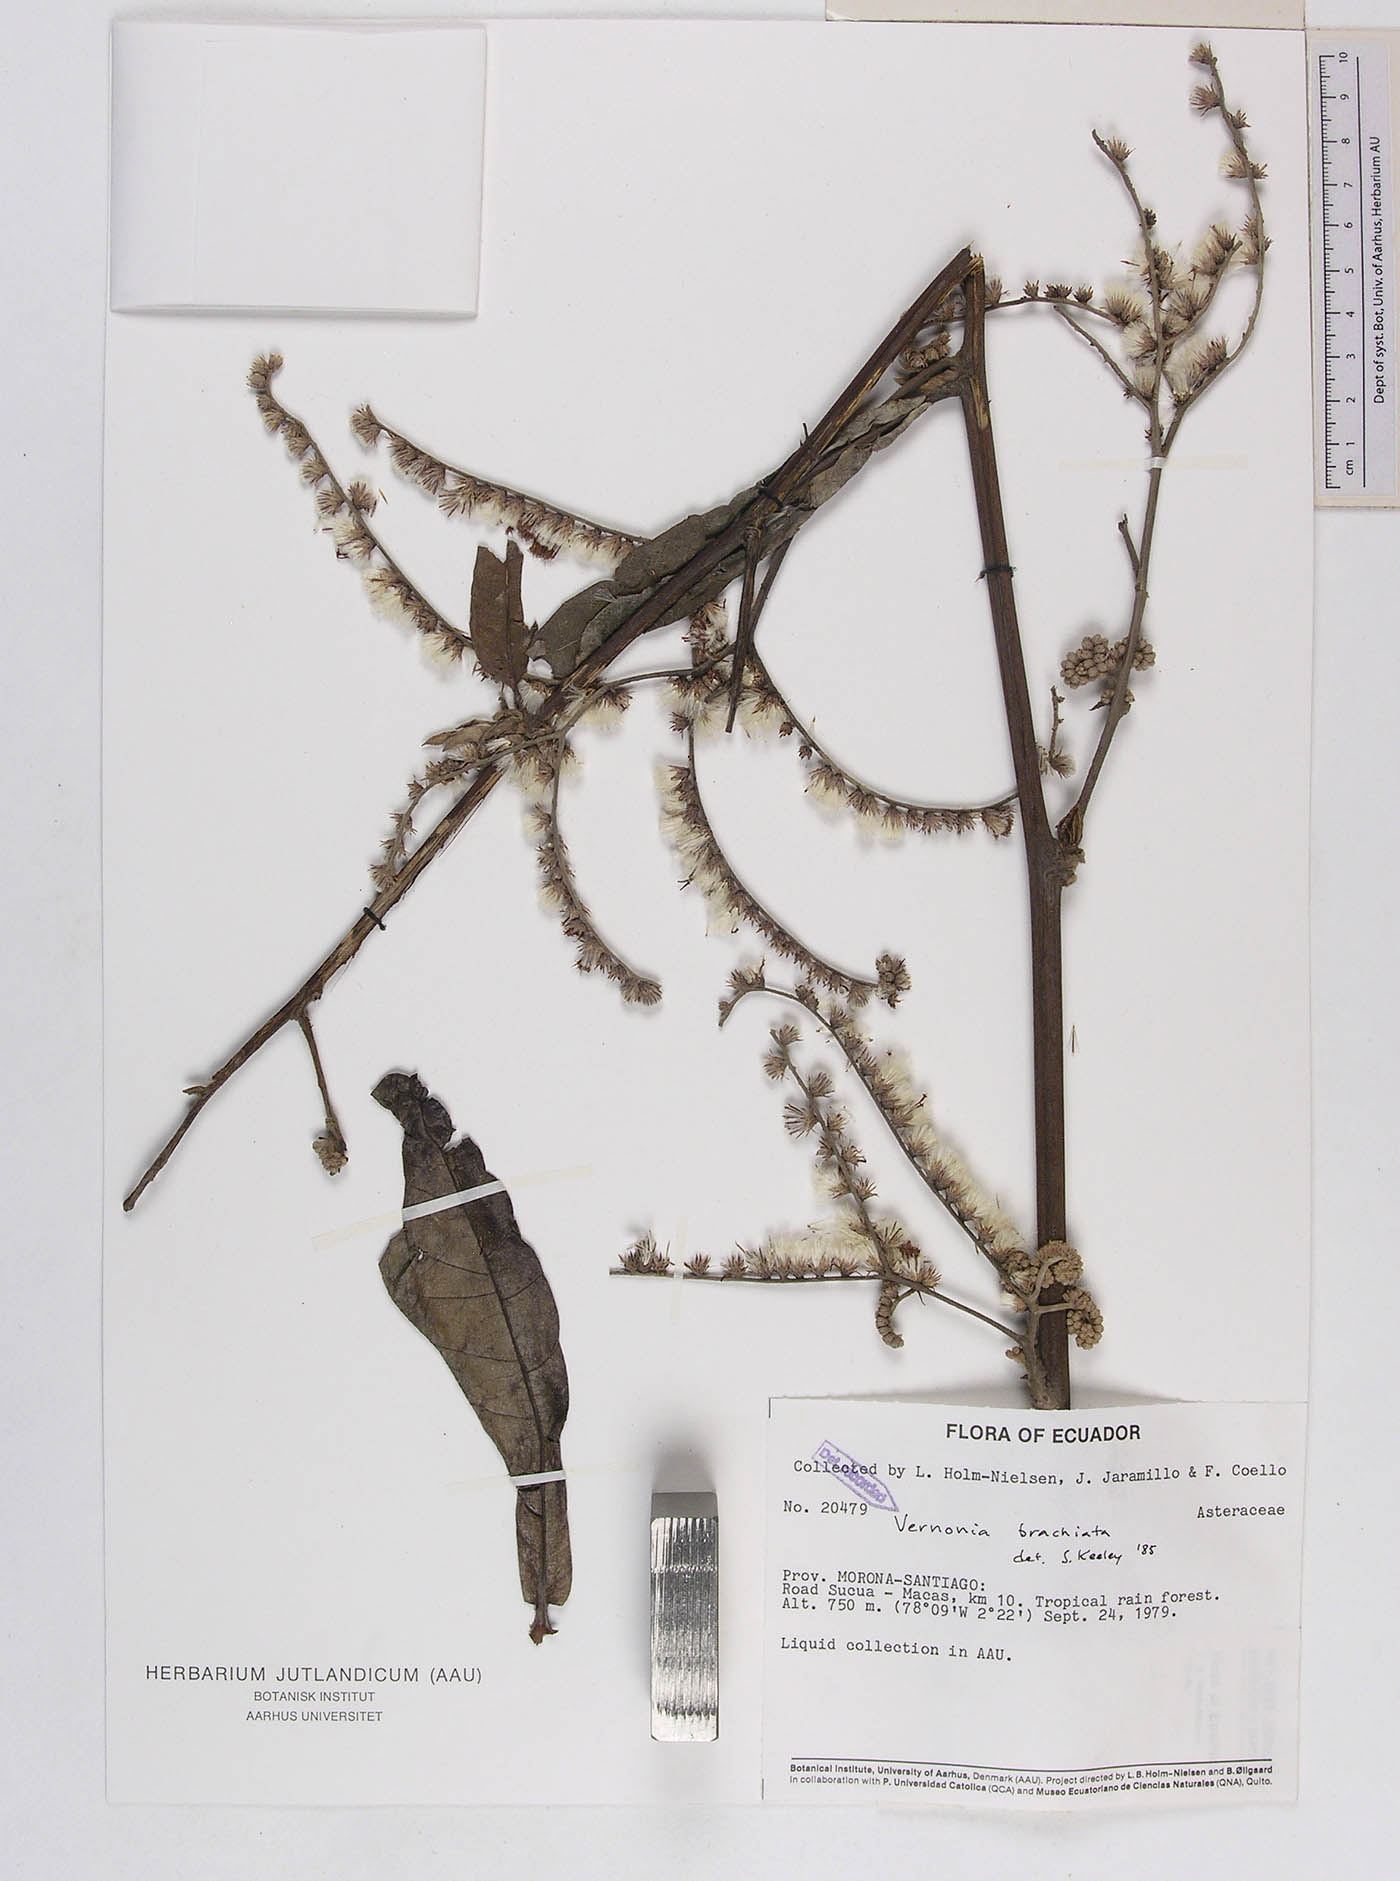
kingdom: Plantae
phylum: Tracheophyta
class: Magnoliopsida
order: Asterales
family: Asteraceae
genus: Eirmocephala
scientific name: Eirmocephala megaphylla
